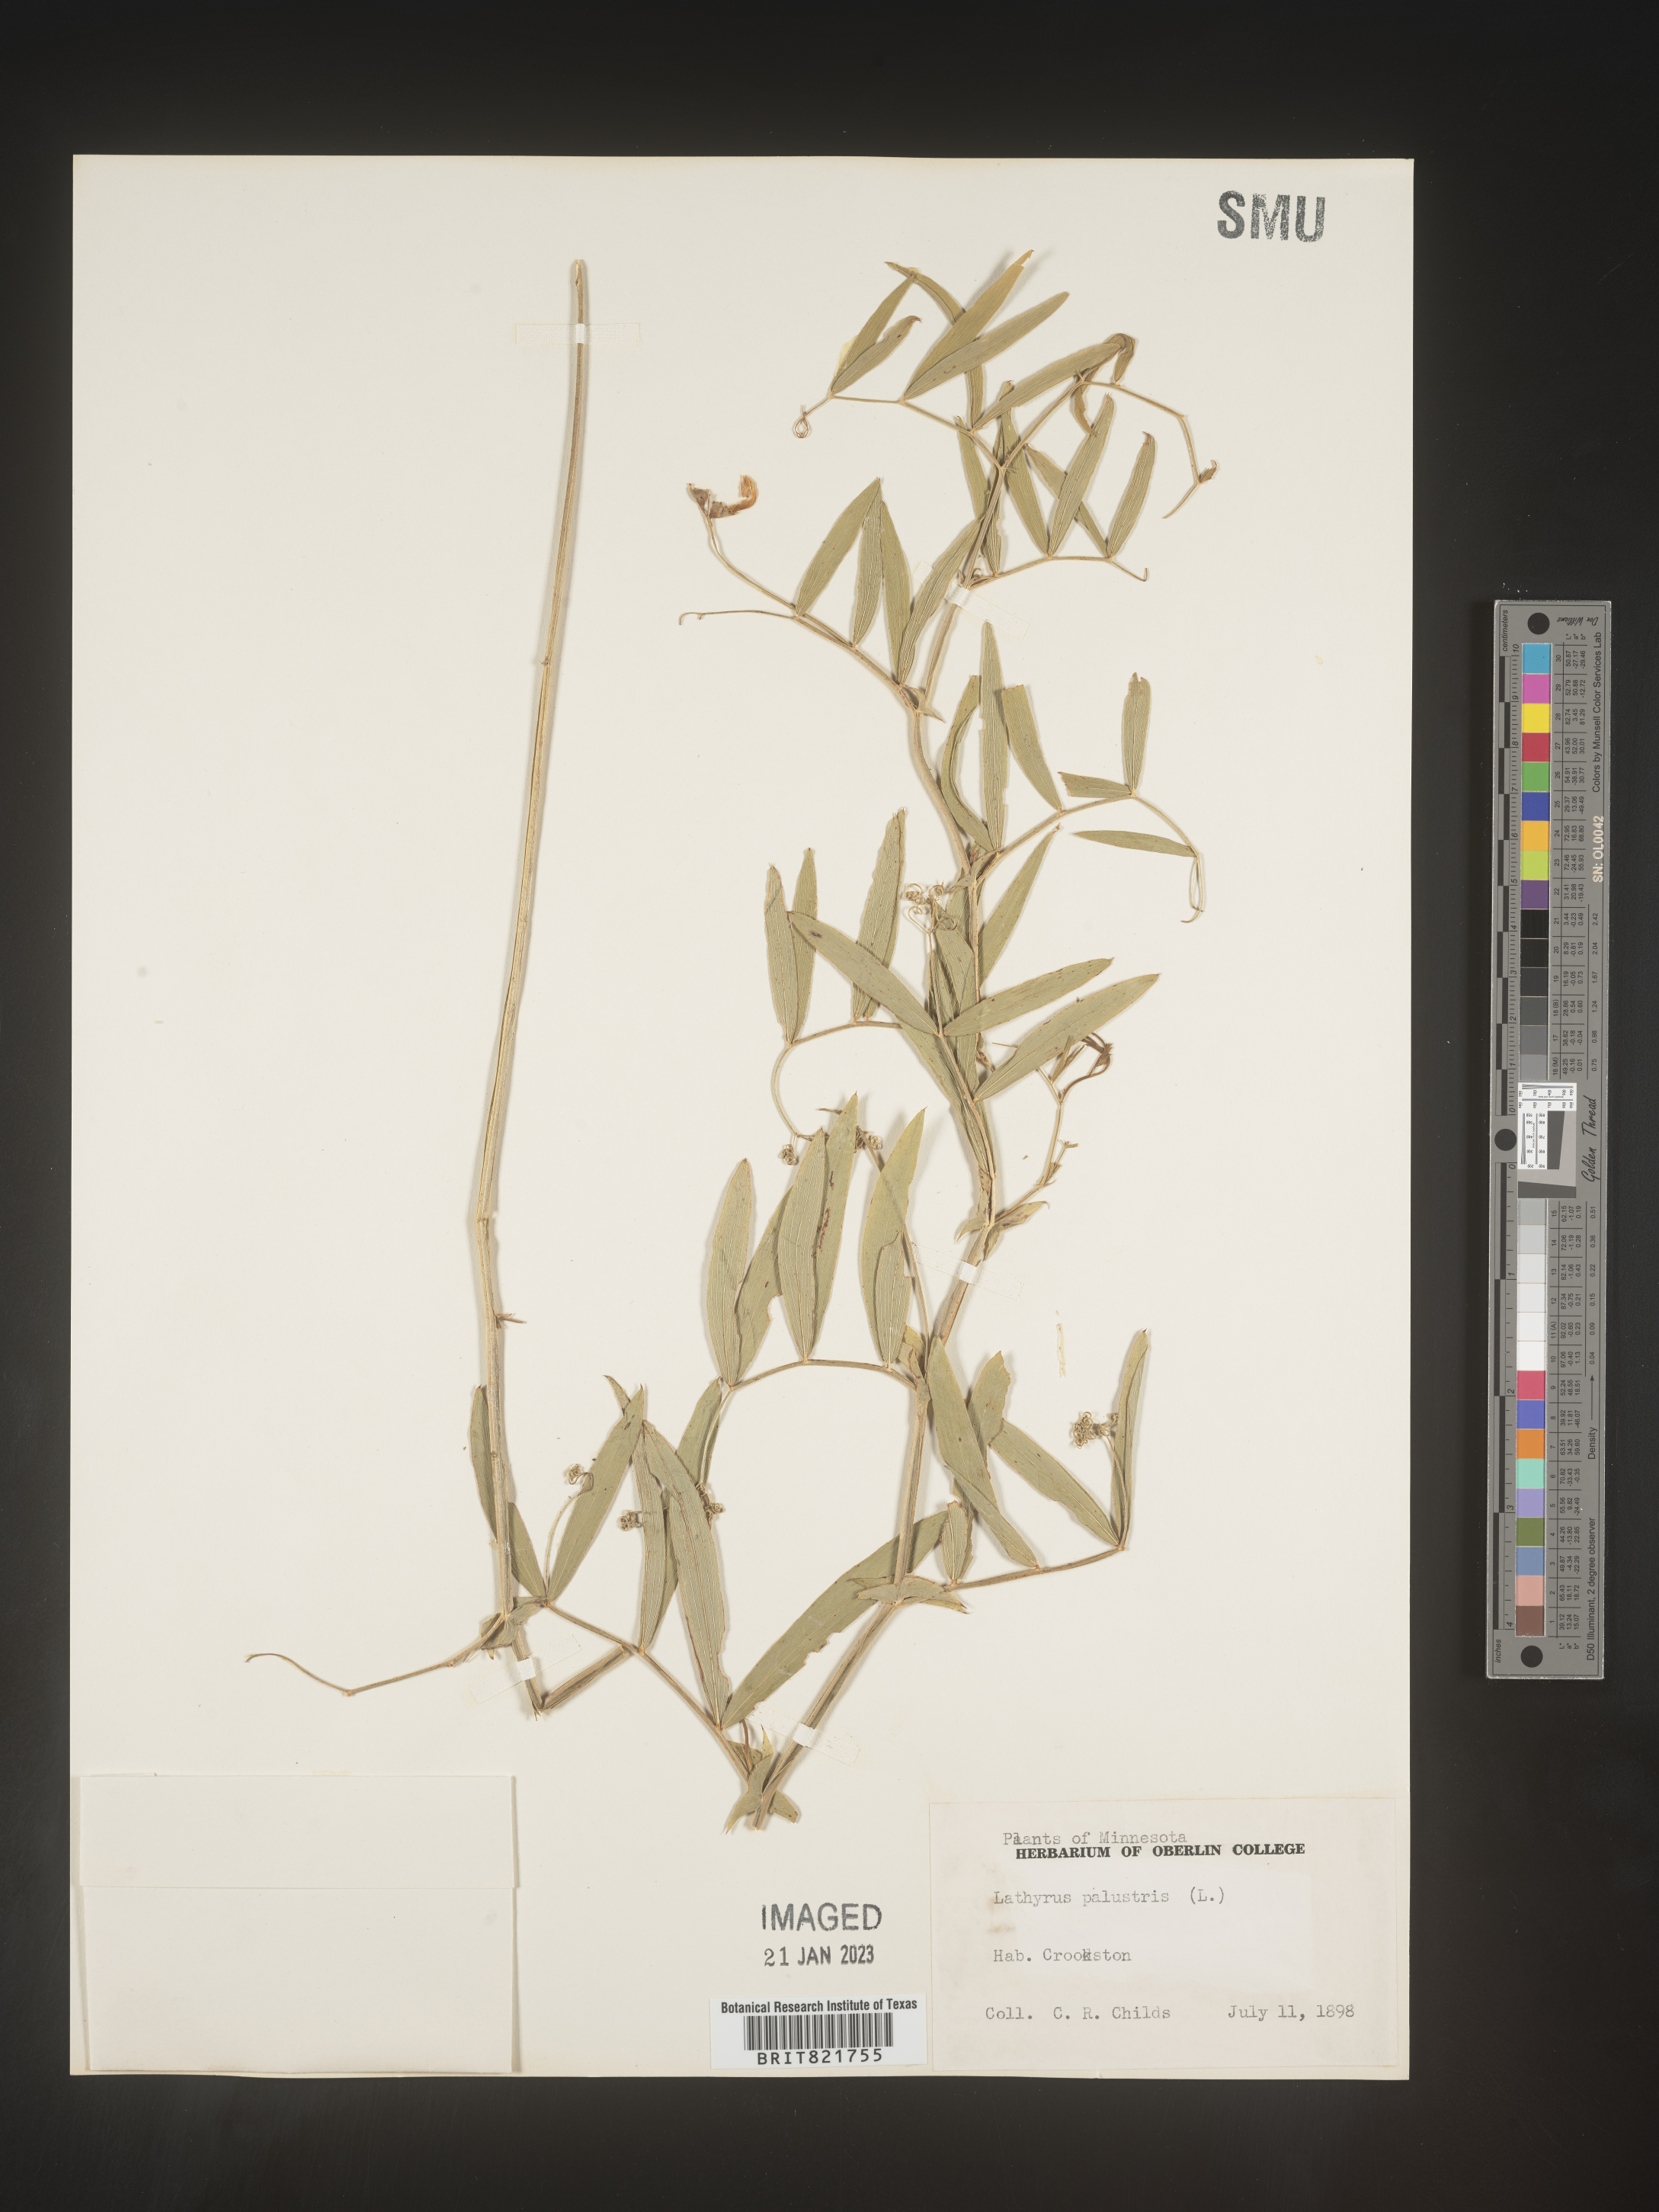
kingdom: Plantae
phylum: Tracheophyta
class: Magnoliopsida
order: Fabales
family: Fabaceae
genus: Lathyrus
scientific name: Lathyrus palustris
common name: Marsh pea
